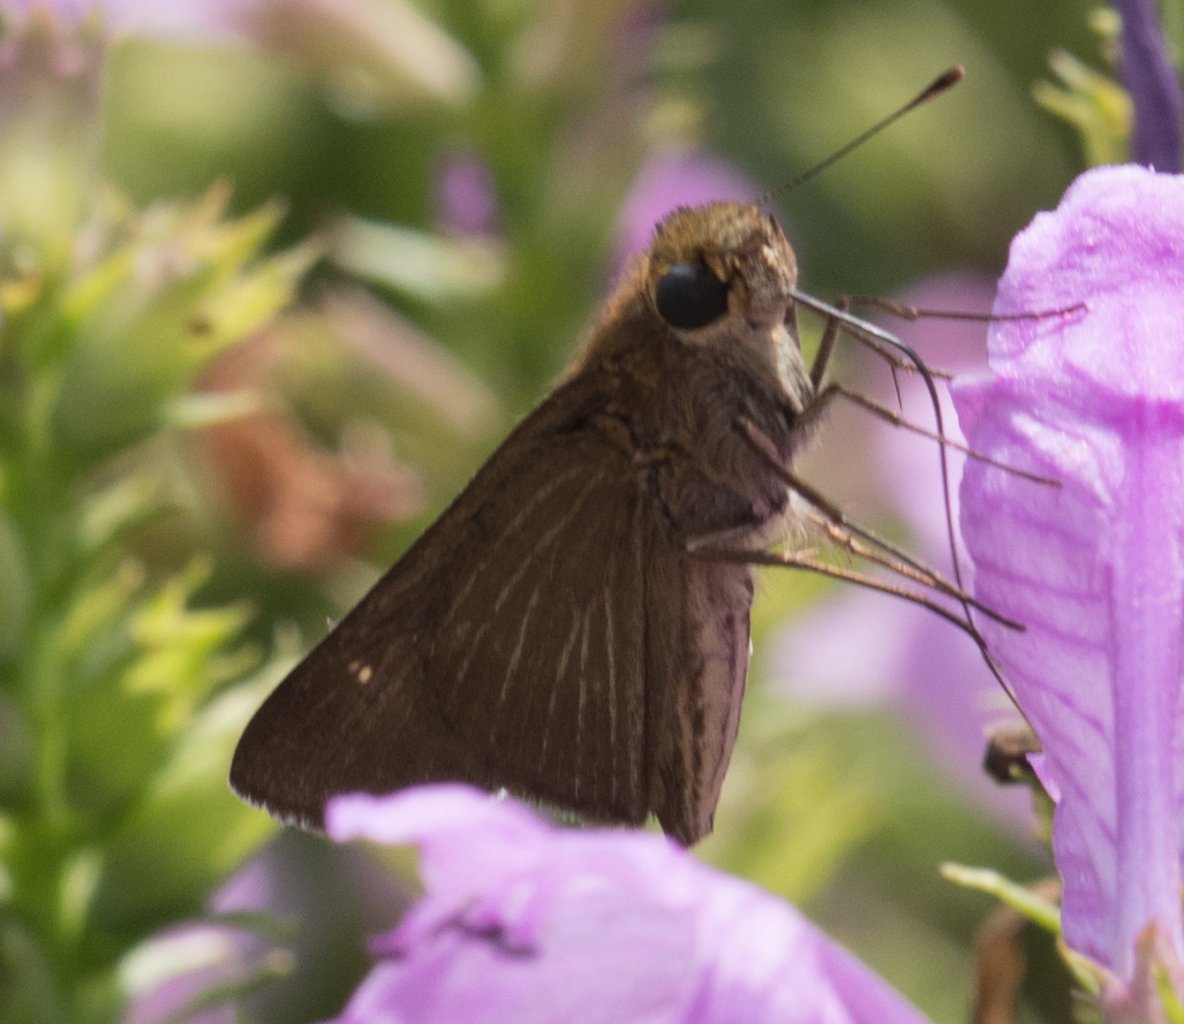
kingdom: Animalia
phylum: Arthropoda
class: Insecta
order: Lepidoptera
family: Hesperiidae
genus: Euphyes
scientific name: Euphyes vestris
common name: Dun Skipper
